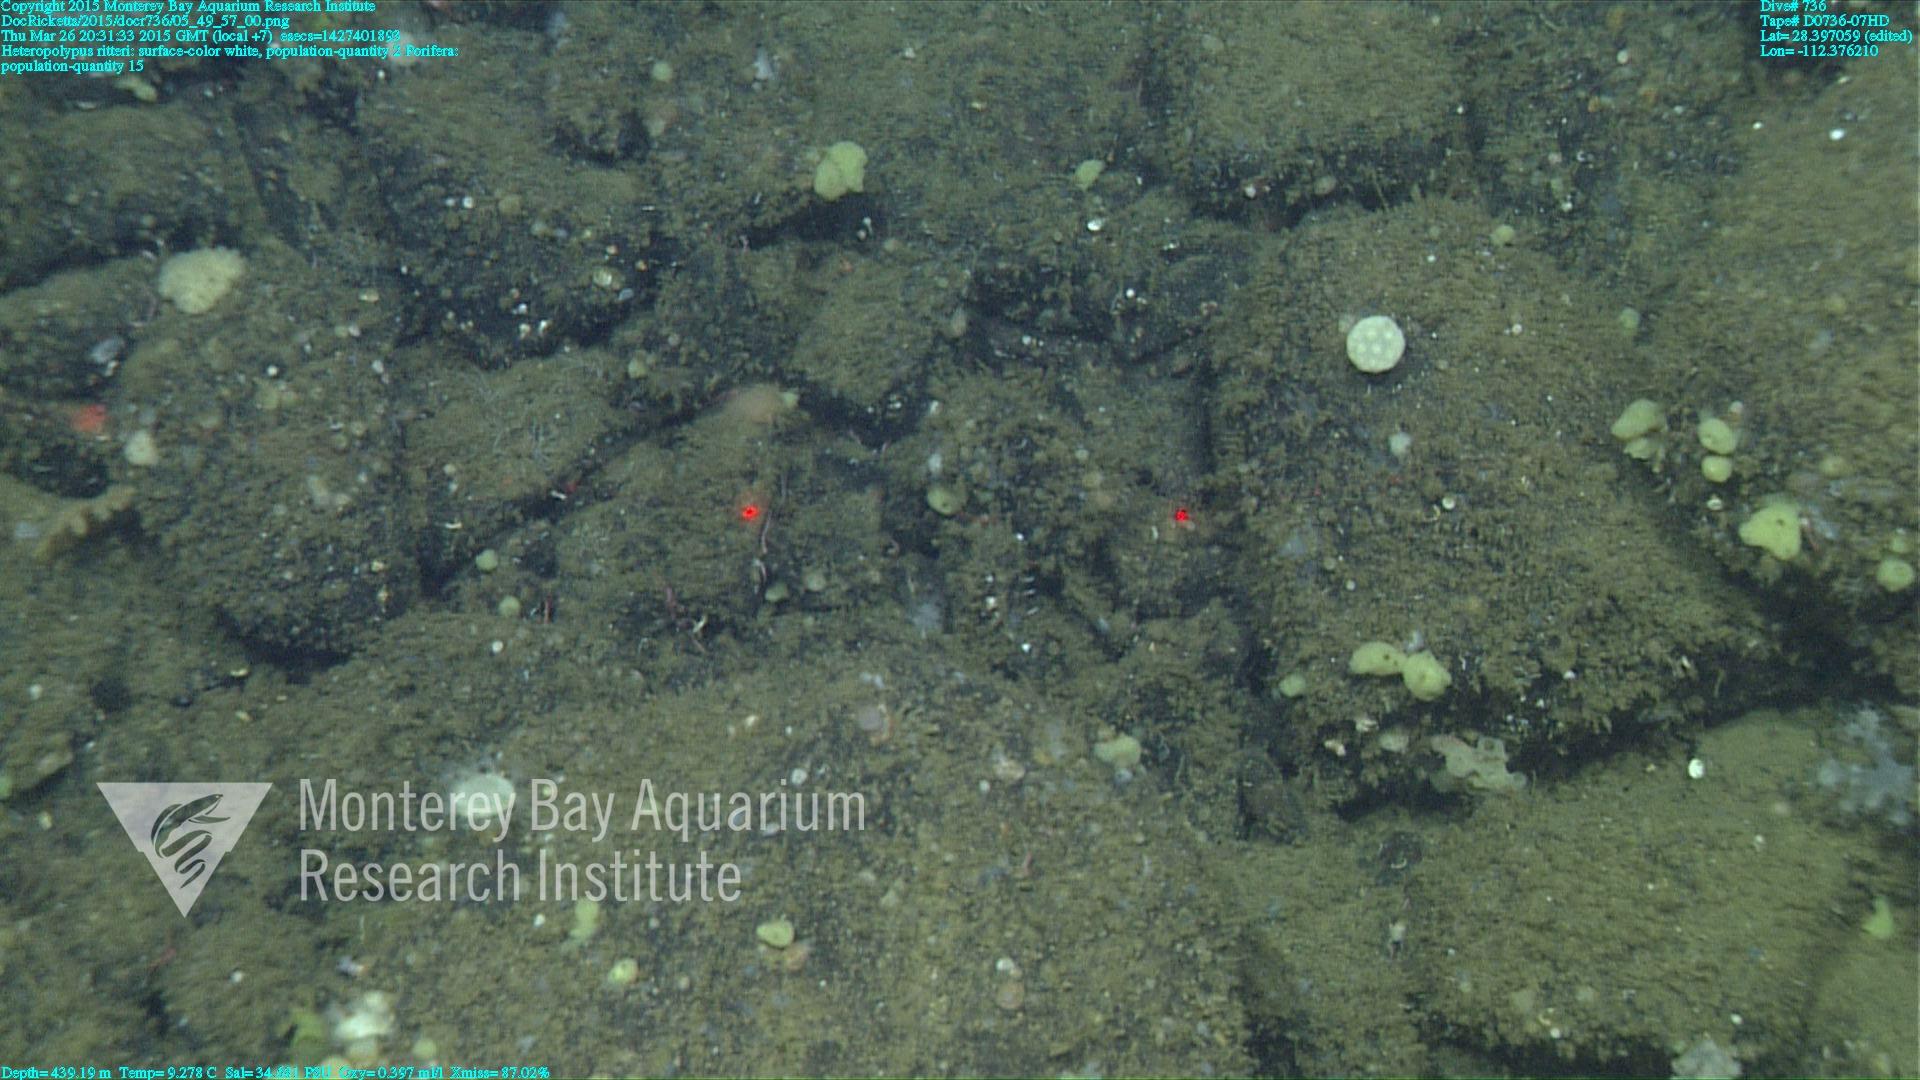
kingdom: Animalia
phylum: Cnidaria
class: Anthozoa
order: Scleralcyonacea
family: Coralliidae
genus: Heteropolypus
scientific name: Heteropolypus ritteri
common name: Ritter's soft coral
